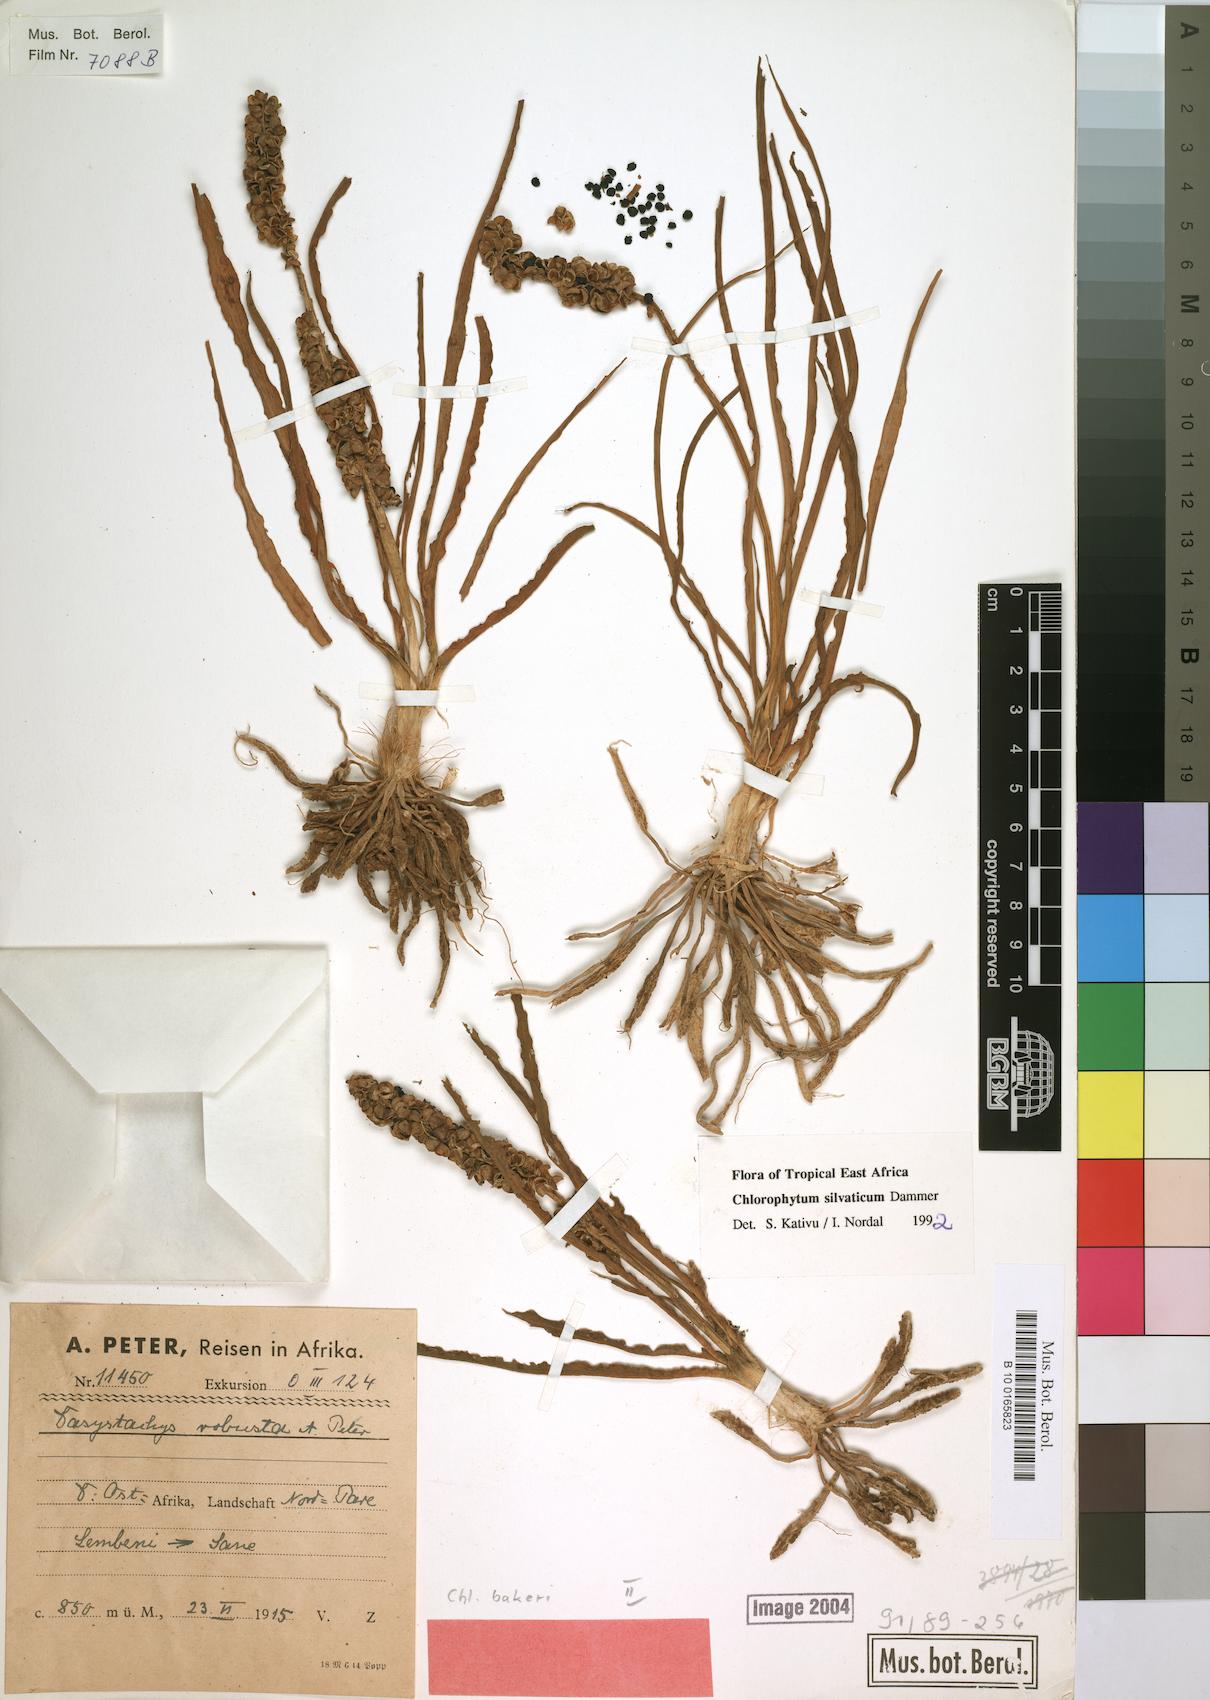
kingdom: Plantae
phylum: Tracheophyta
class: Liliopsida
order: Asparagales
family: Asparagaceae
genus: Chlorophytum
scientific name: Chlorophytum africanum
